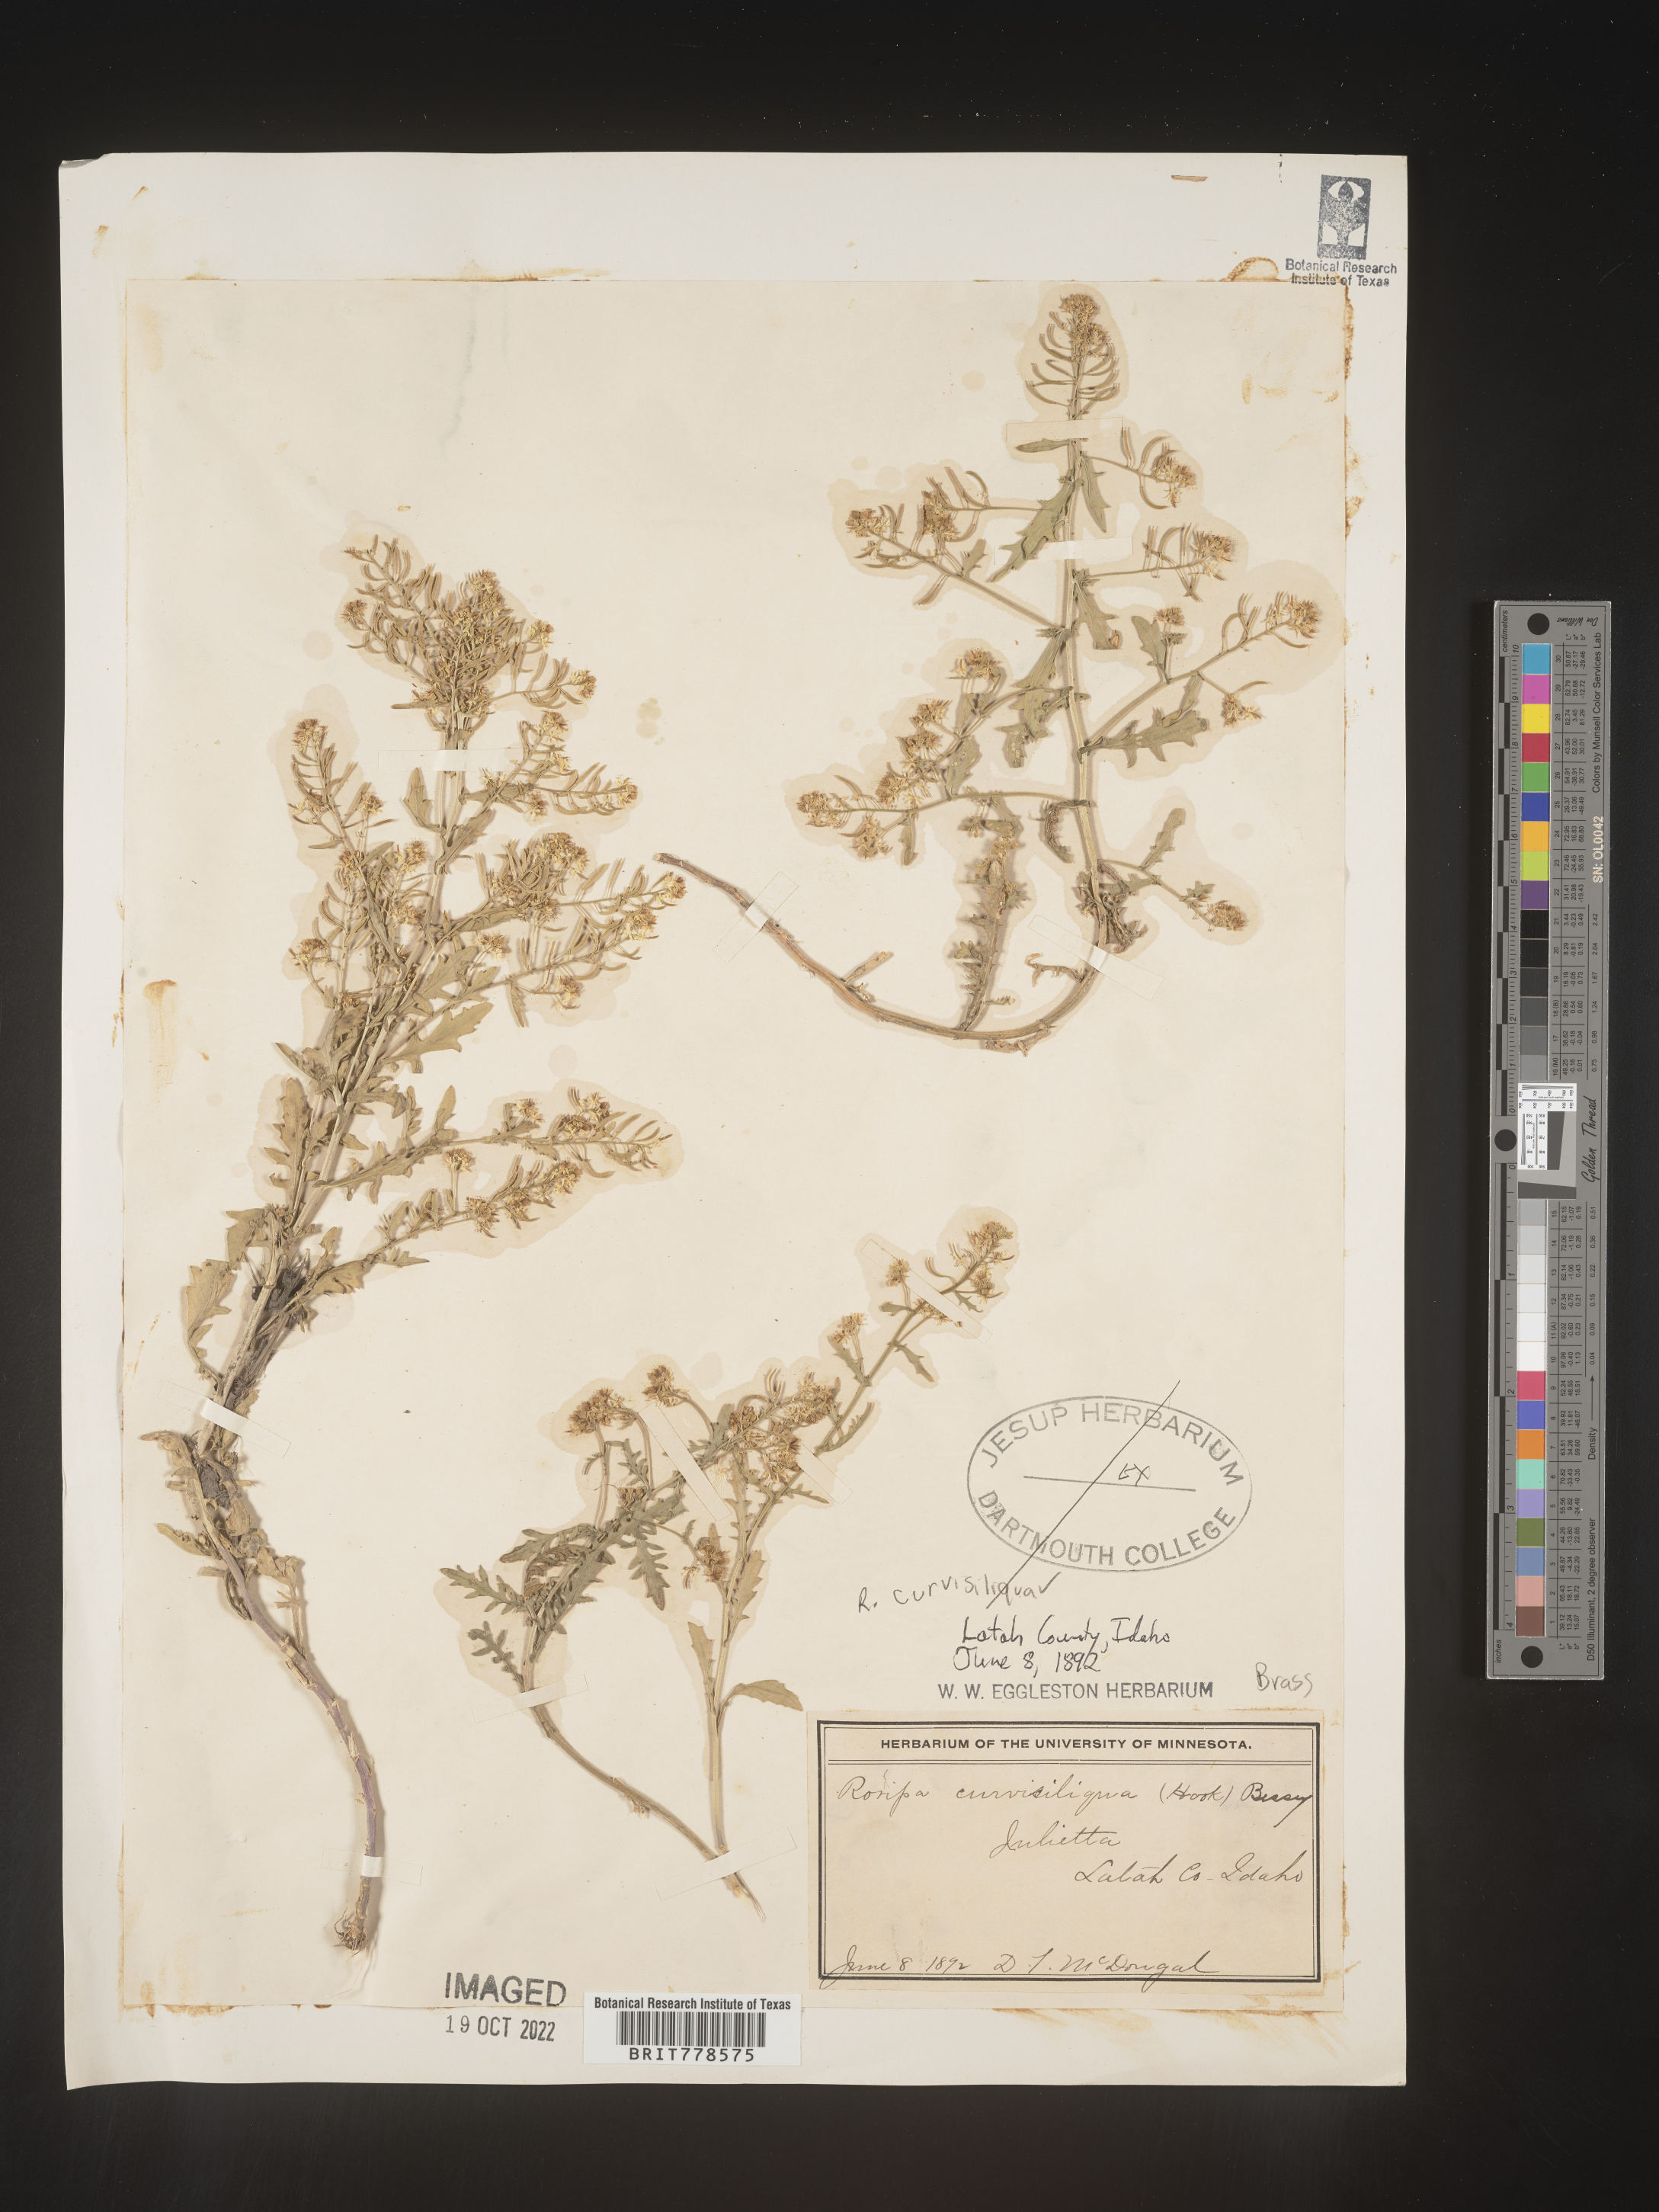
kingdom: Plantae
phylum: Tracheophyta
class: Magnoliopsida
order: Brassicales
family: Brassicaceae
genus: Rorippa
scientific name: Rorippa
